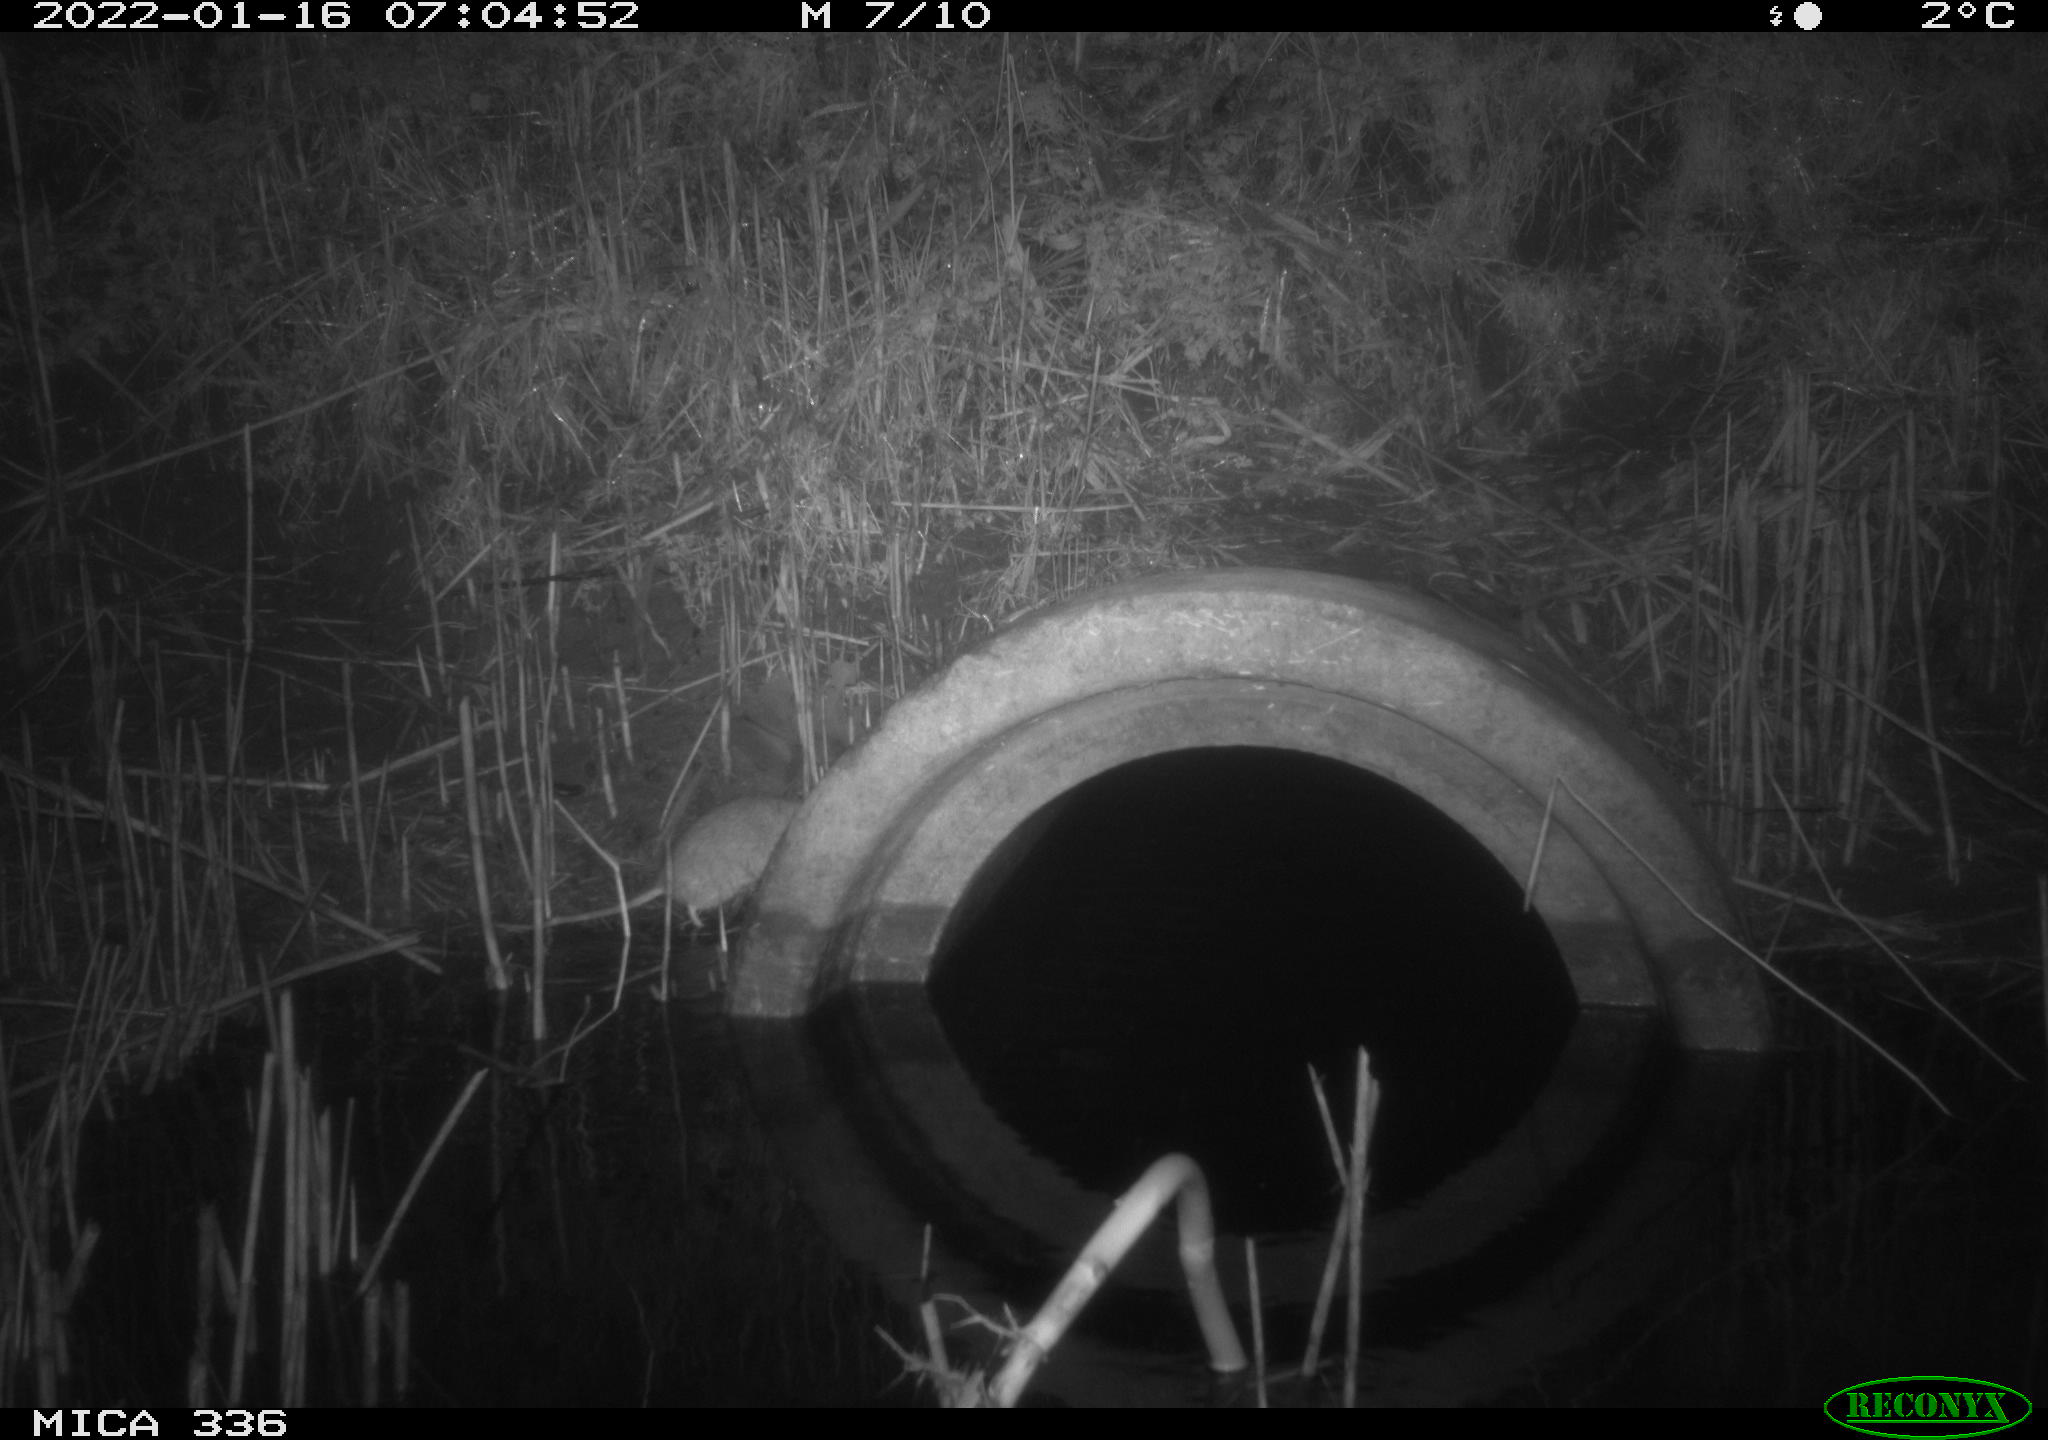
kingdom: Animalia
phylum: Chordata
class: Mammalia
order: Rodentia
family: Muridae
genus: Rattus
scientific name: Rattus norvegicus
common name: Brown rat
